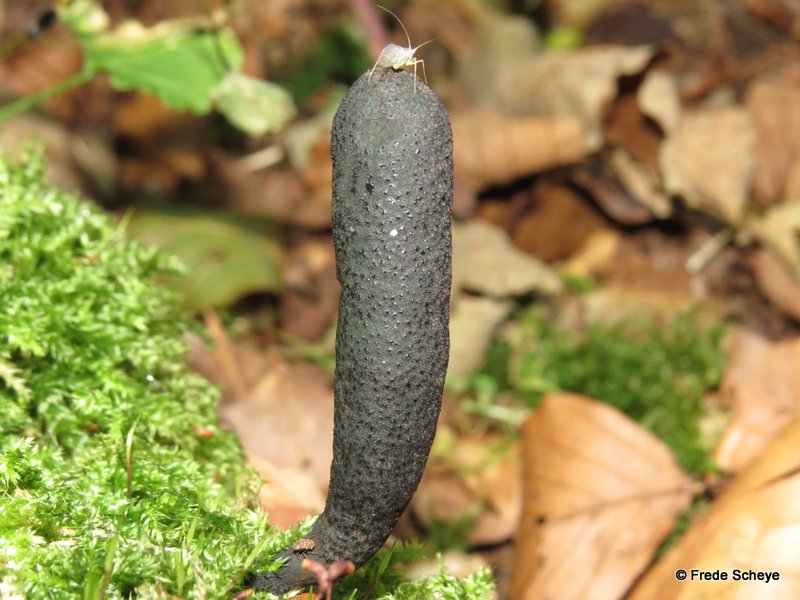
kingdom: Fungi
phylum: Ascomycota
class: Sordariomycetes
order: Xylariales
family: Xylariaceae
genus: Xylaria
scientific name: Xylaria longipes
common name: slank stødsvamp
